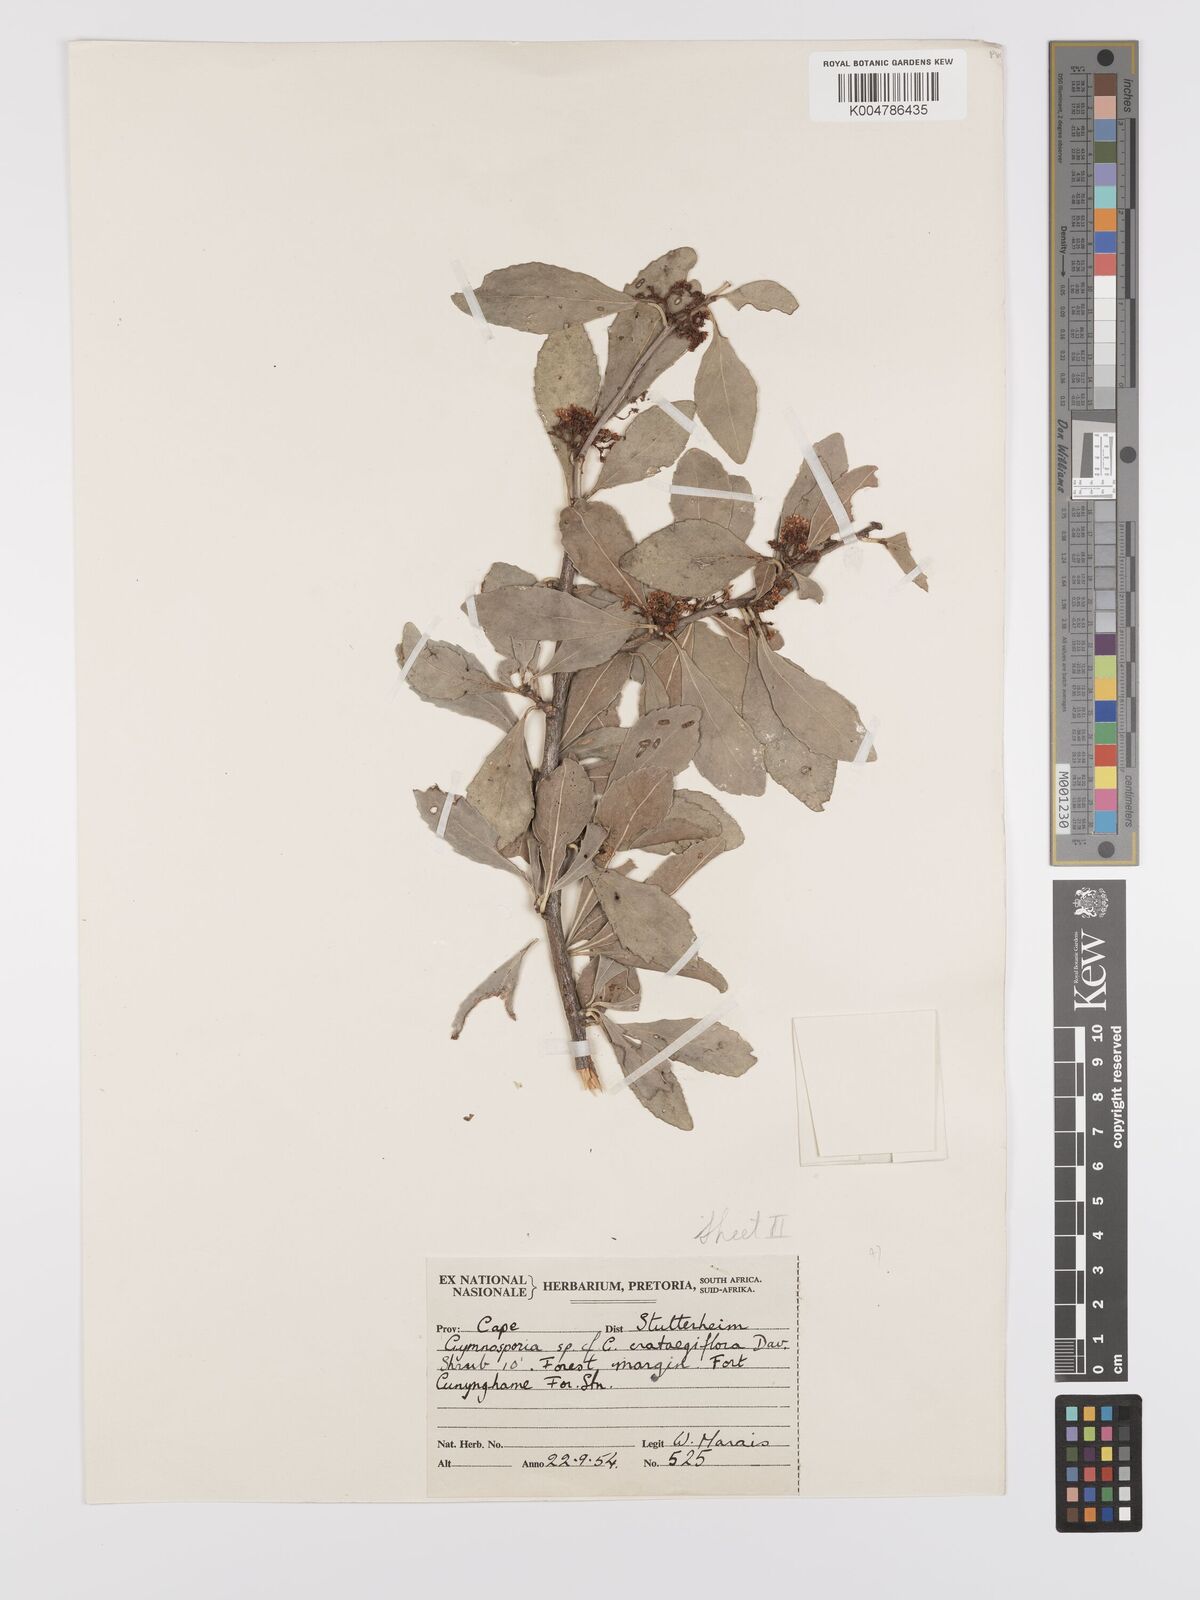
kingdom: Plantae
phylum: Tracheophyta
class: Magnoliopsida
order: Celastrales
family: Celastraceae
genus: Gymnosporia
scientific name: Gymnosporia grandifolia
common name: Large-fruited forest spike-thorn
